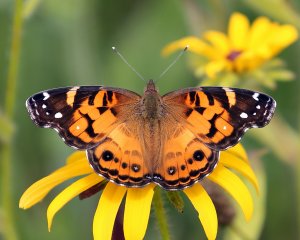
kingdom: Animalia
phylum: Arthropoda
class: Insecta
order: Lepidoptera
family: Nymphalidae
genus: Vanessa
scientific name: Vanessa virginiensis
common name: American Lady
